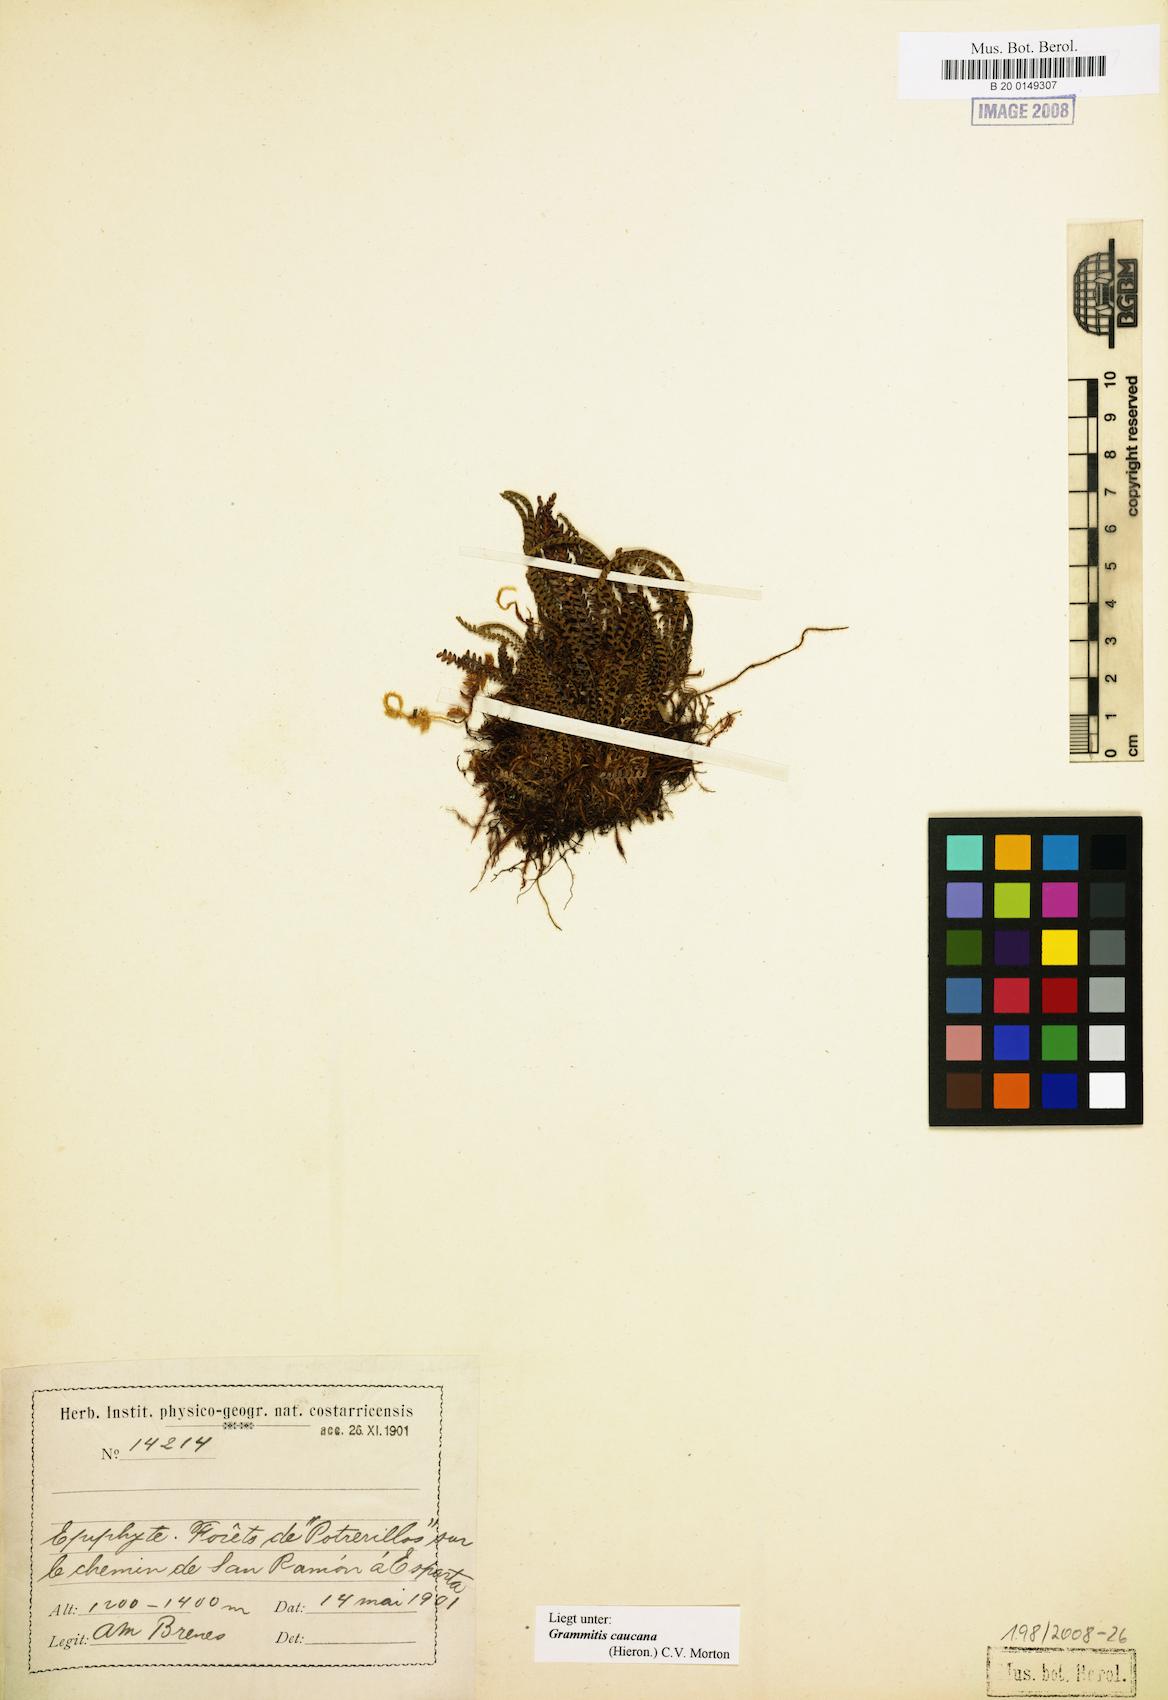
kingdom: Plantae
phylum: Tracheophyta
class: Polypodiopsida
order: Polypodiales
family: Polypodiaceae
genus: Moranopteris
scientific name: Moranopteris nana
